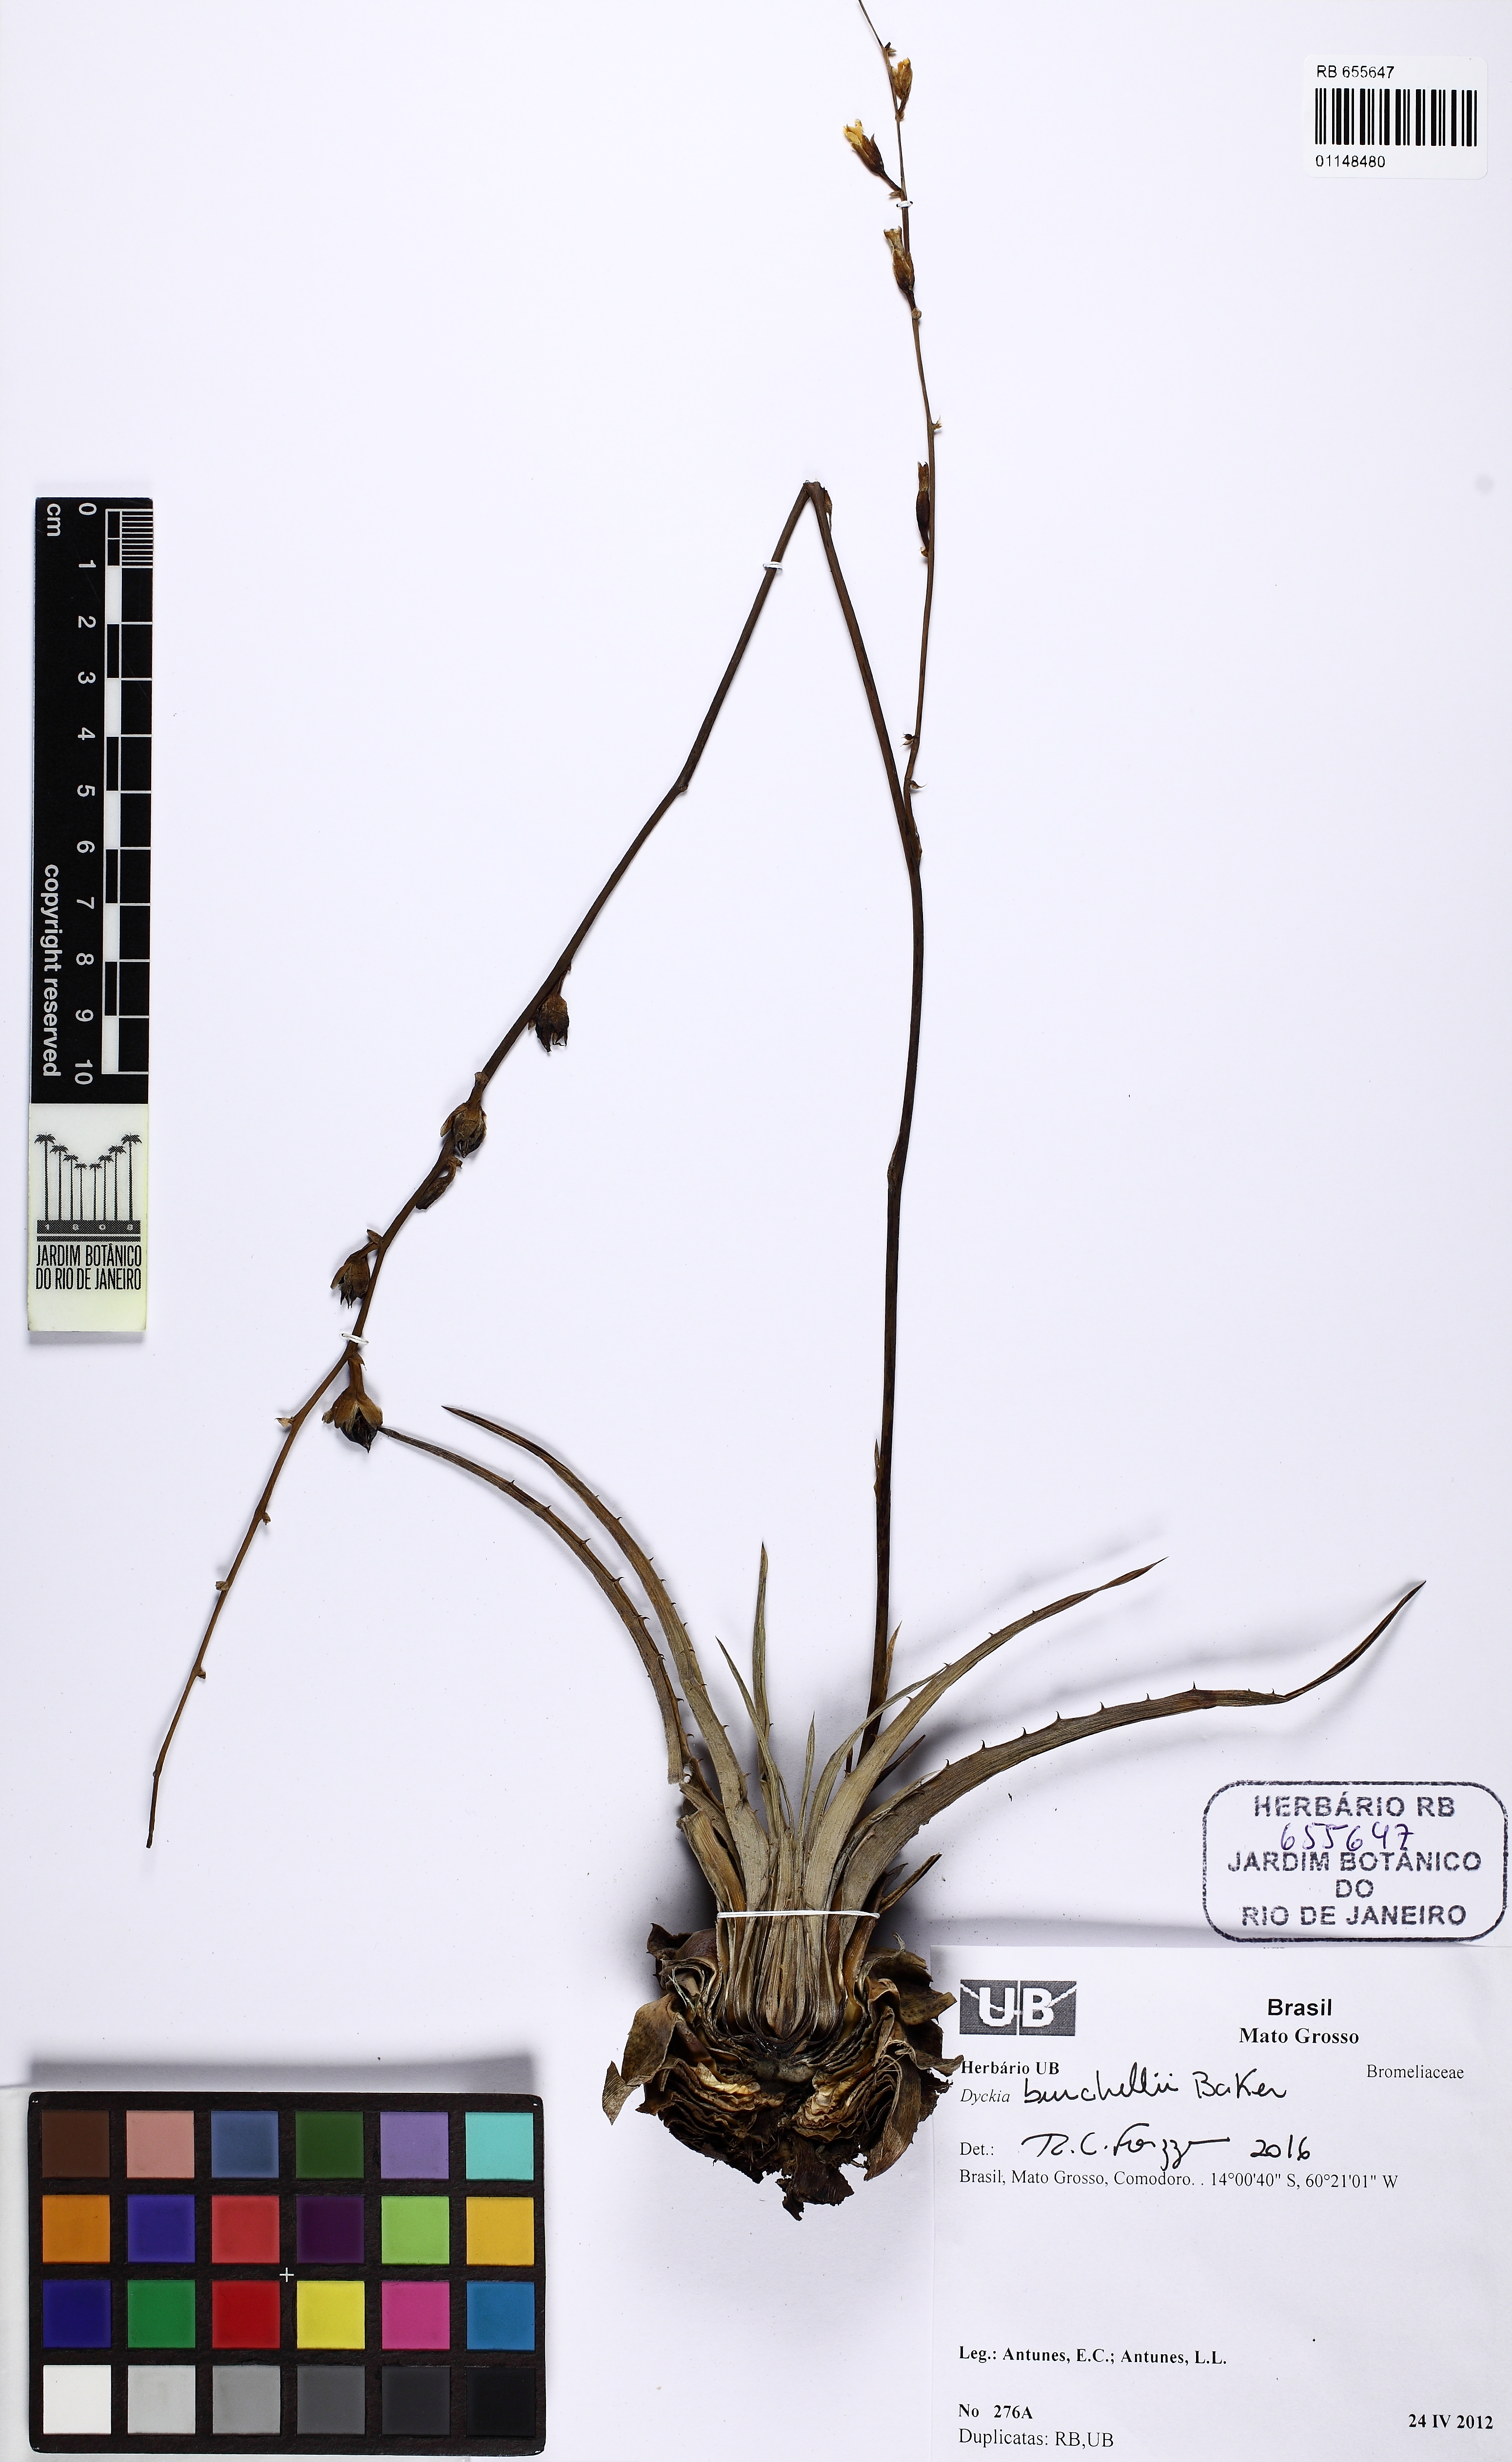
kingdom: Plantae
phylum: Tracheophyta
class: Liliopsida
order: Poales
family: Bromeliaceae
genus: Dyckia
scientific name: Dyckia duckei
